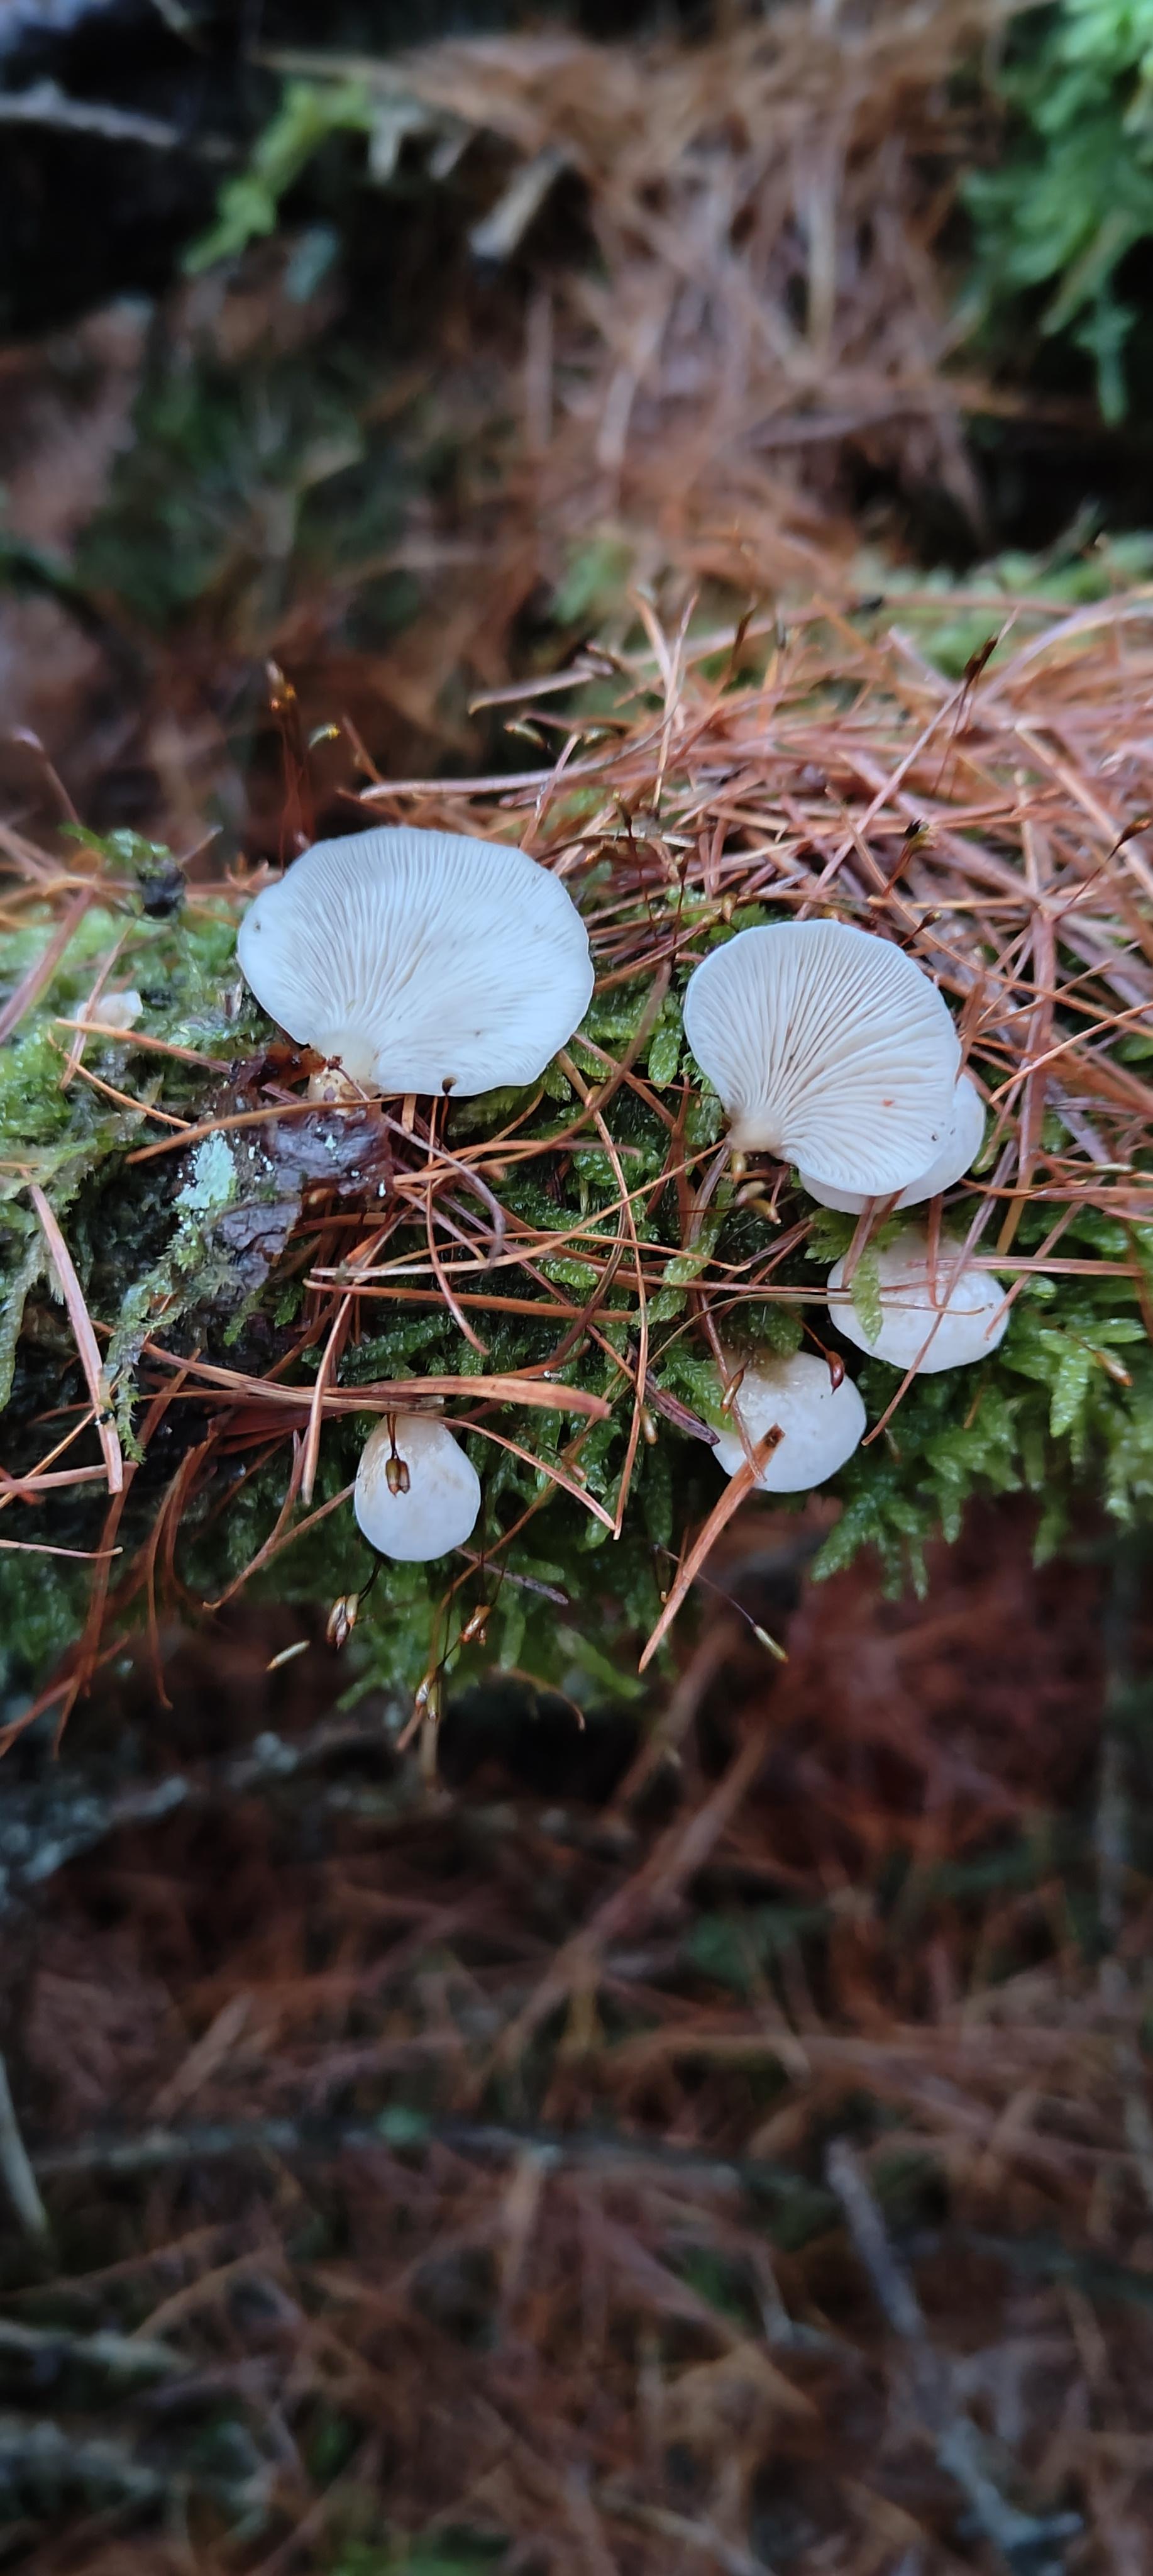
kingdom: Fungi
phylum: Basidiomycota
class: Agaricomycetes
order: Agaricales
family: Mycenaceae
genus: Panellus
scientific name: Panellus mitis
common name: mild epaulethat
